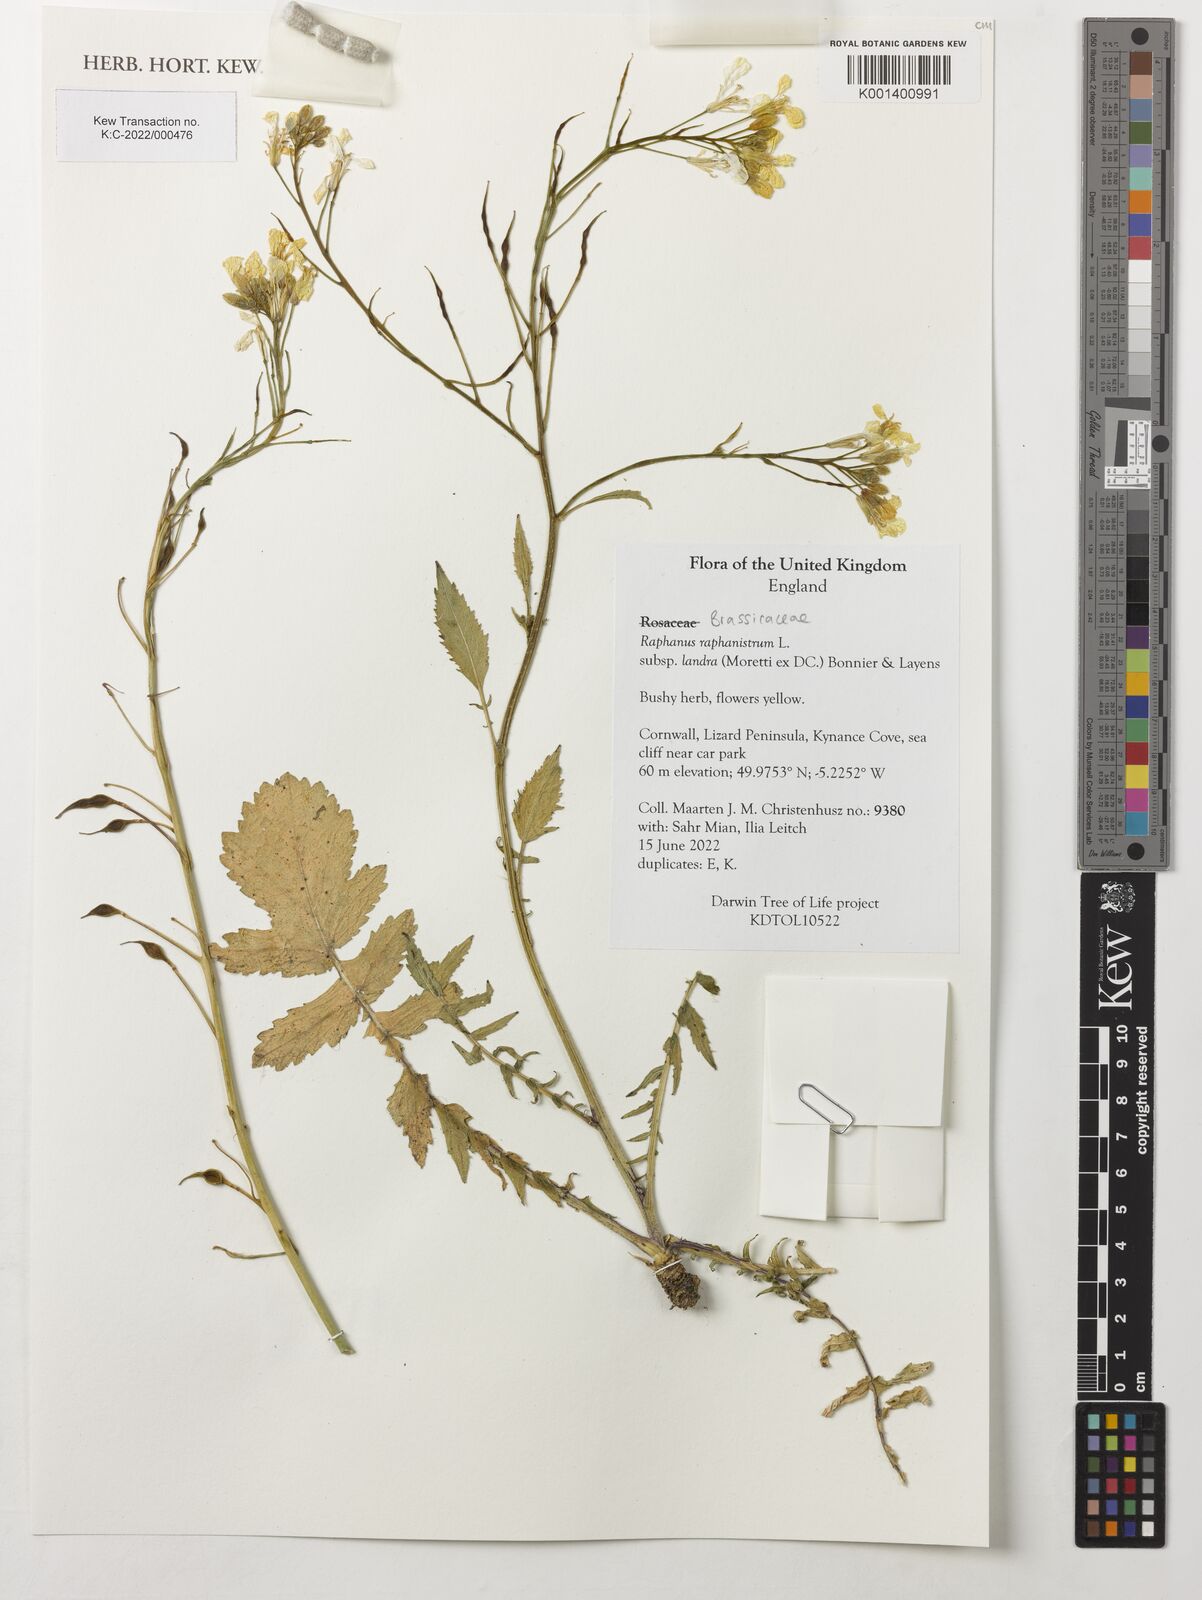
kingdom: Plantae
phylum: Tracheophyta
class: Magnoliopsida
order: Brassicales
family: Brassicaceae
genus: Raphanus
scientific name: Raphanus raphanistrum
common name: Wild radish
